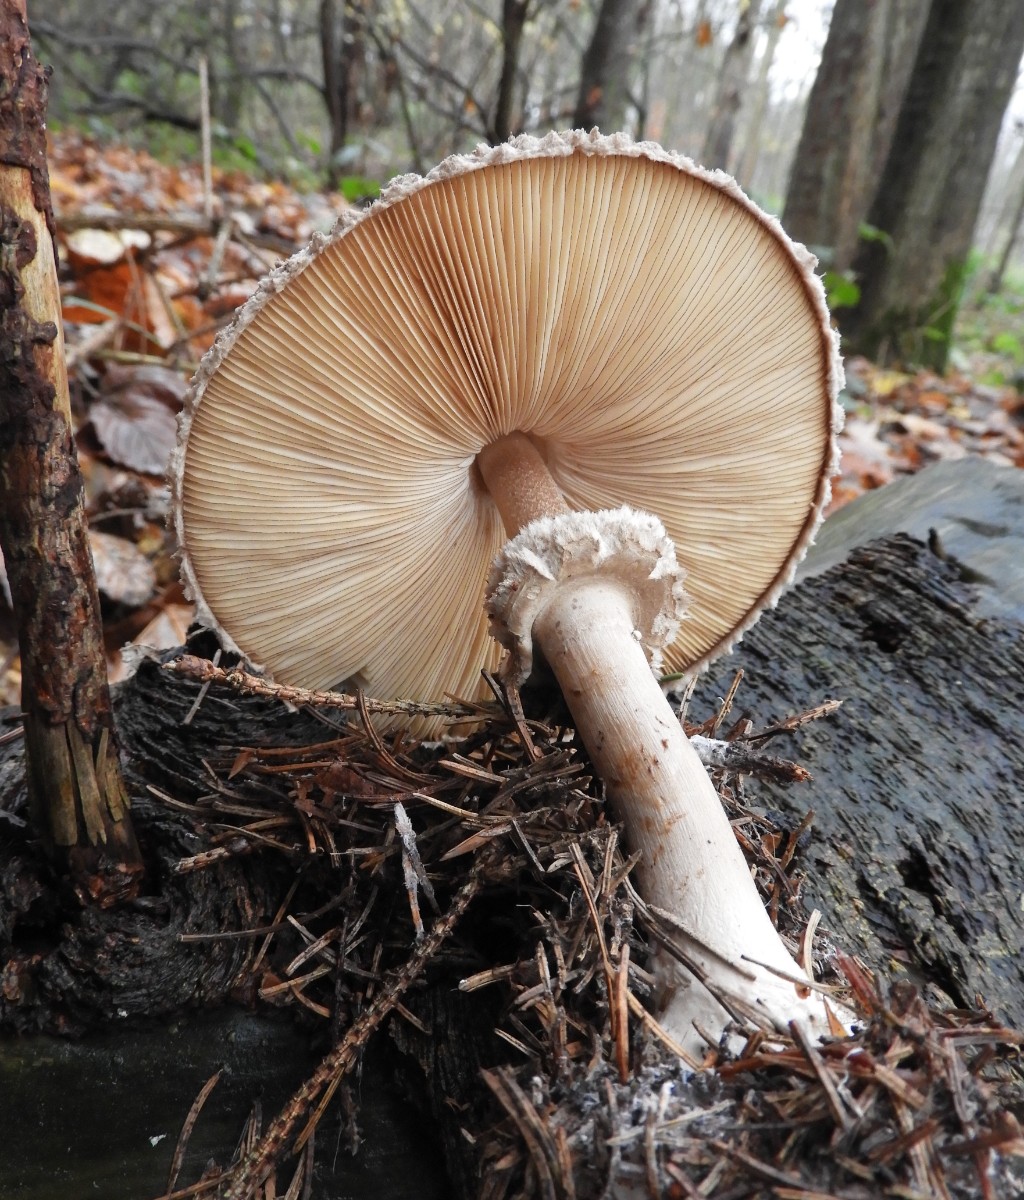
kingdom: Fungi
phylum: Basidiomycota
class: Agaricomycetes
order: Agaricales
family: Agaricaceae
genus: Chlorophyllum
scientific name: Chlorophyllum olivieri
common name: almindelig rabarberhat
